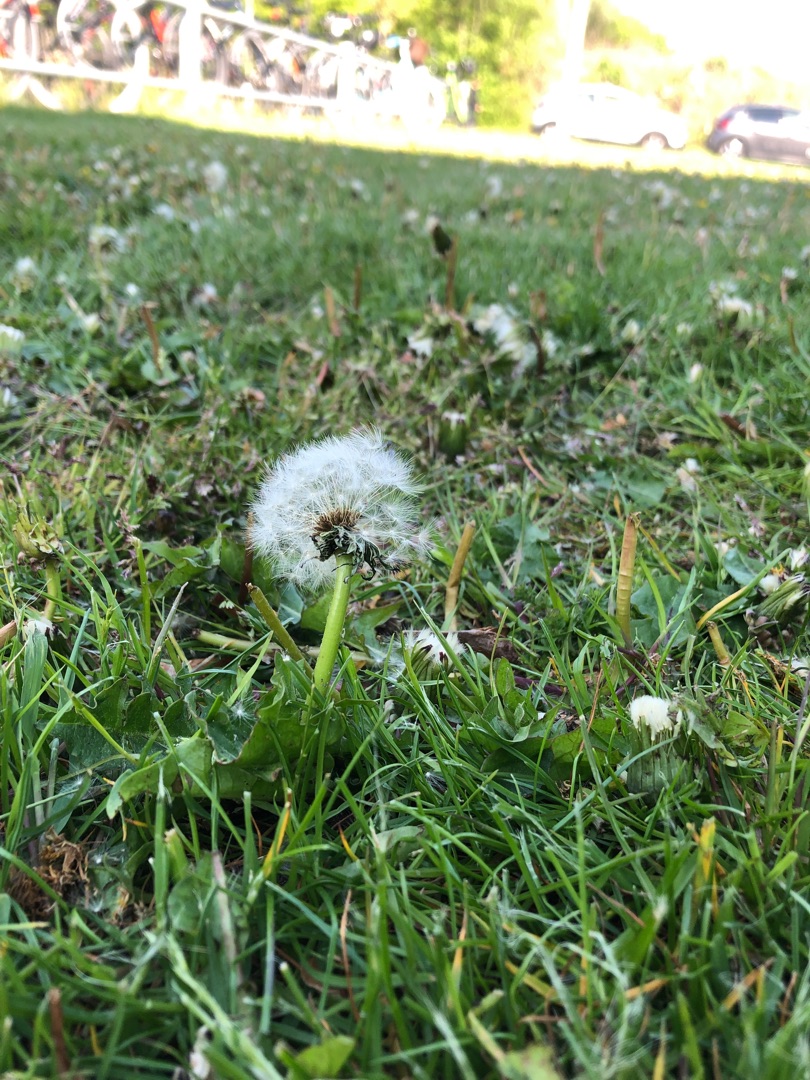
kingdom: Plantae
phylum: Tracheophyta
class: Magnoliopsida
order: Asterales
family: Asteraceae
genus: Taraxacum
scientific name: Taraxacum
